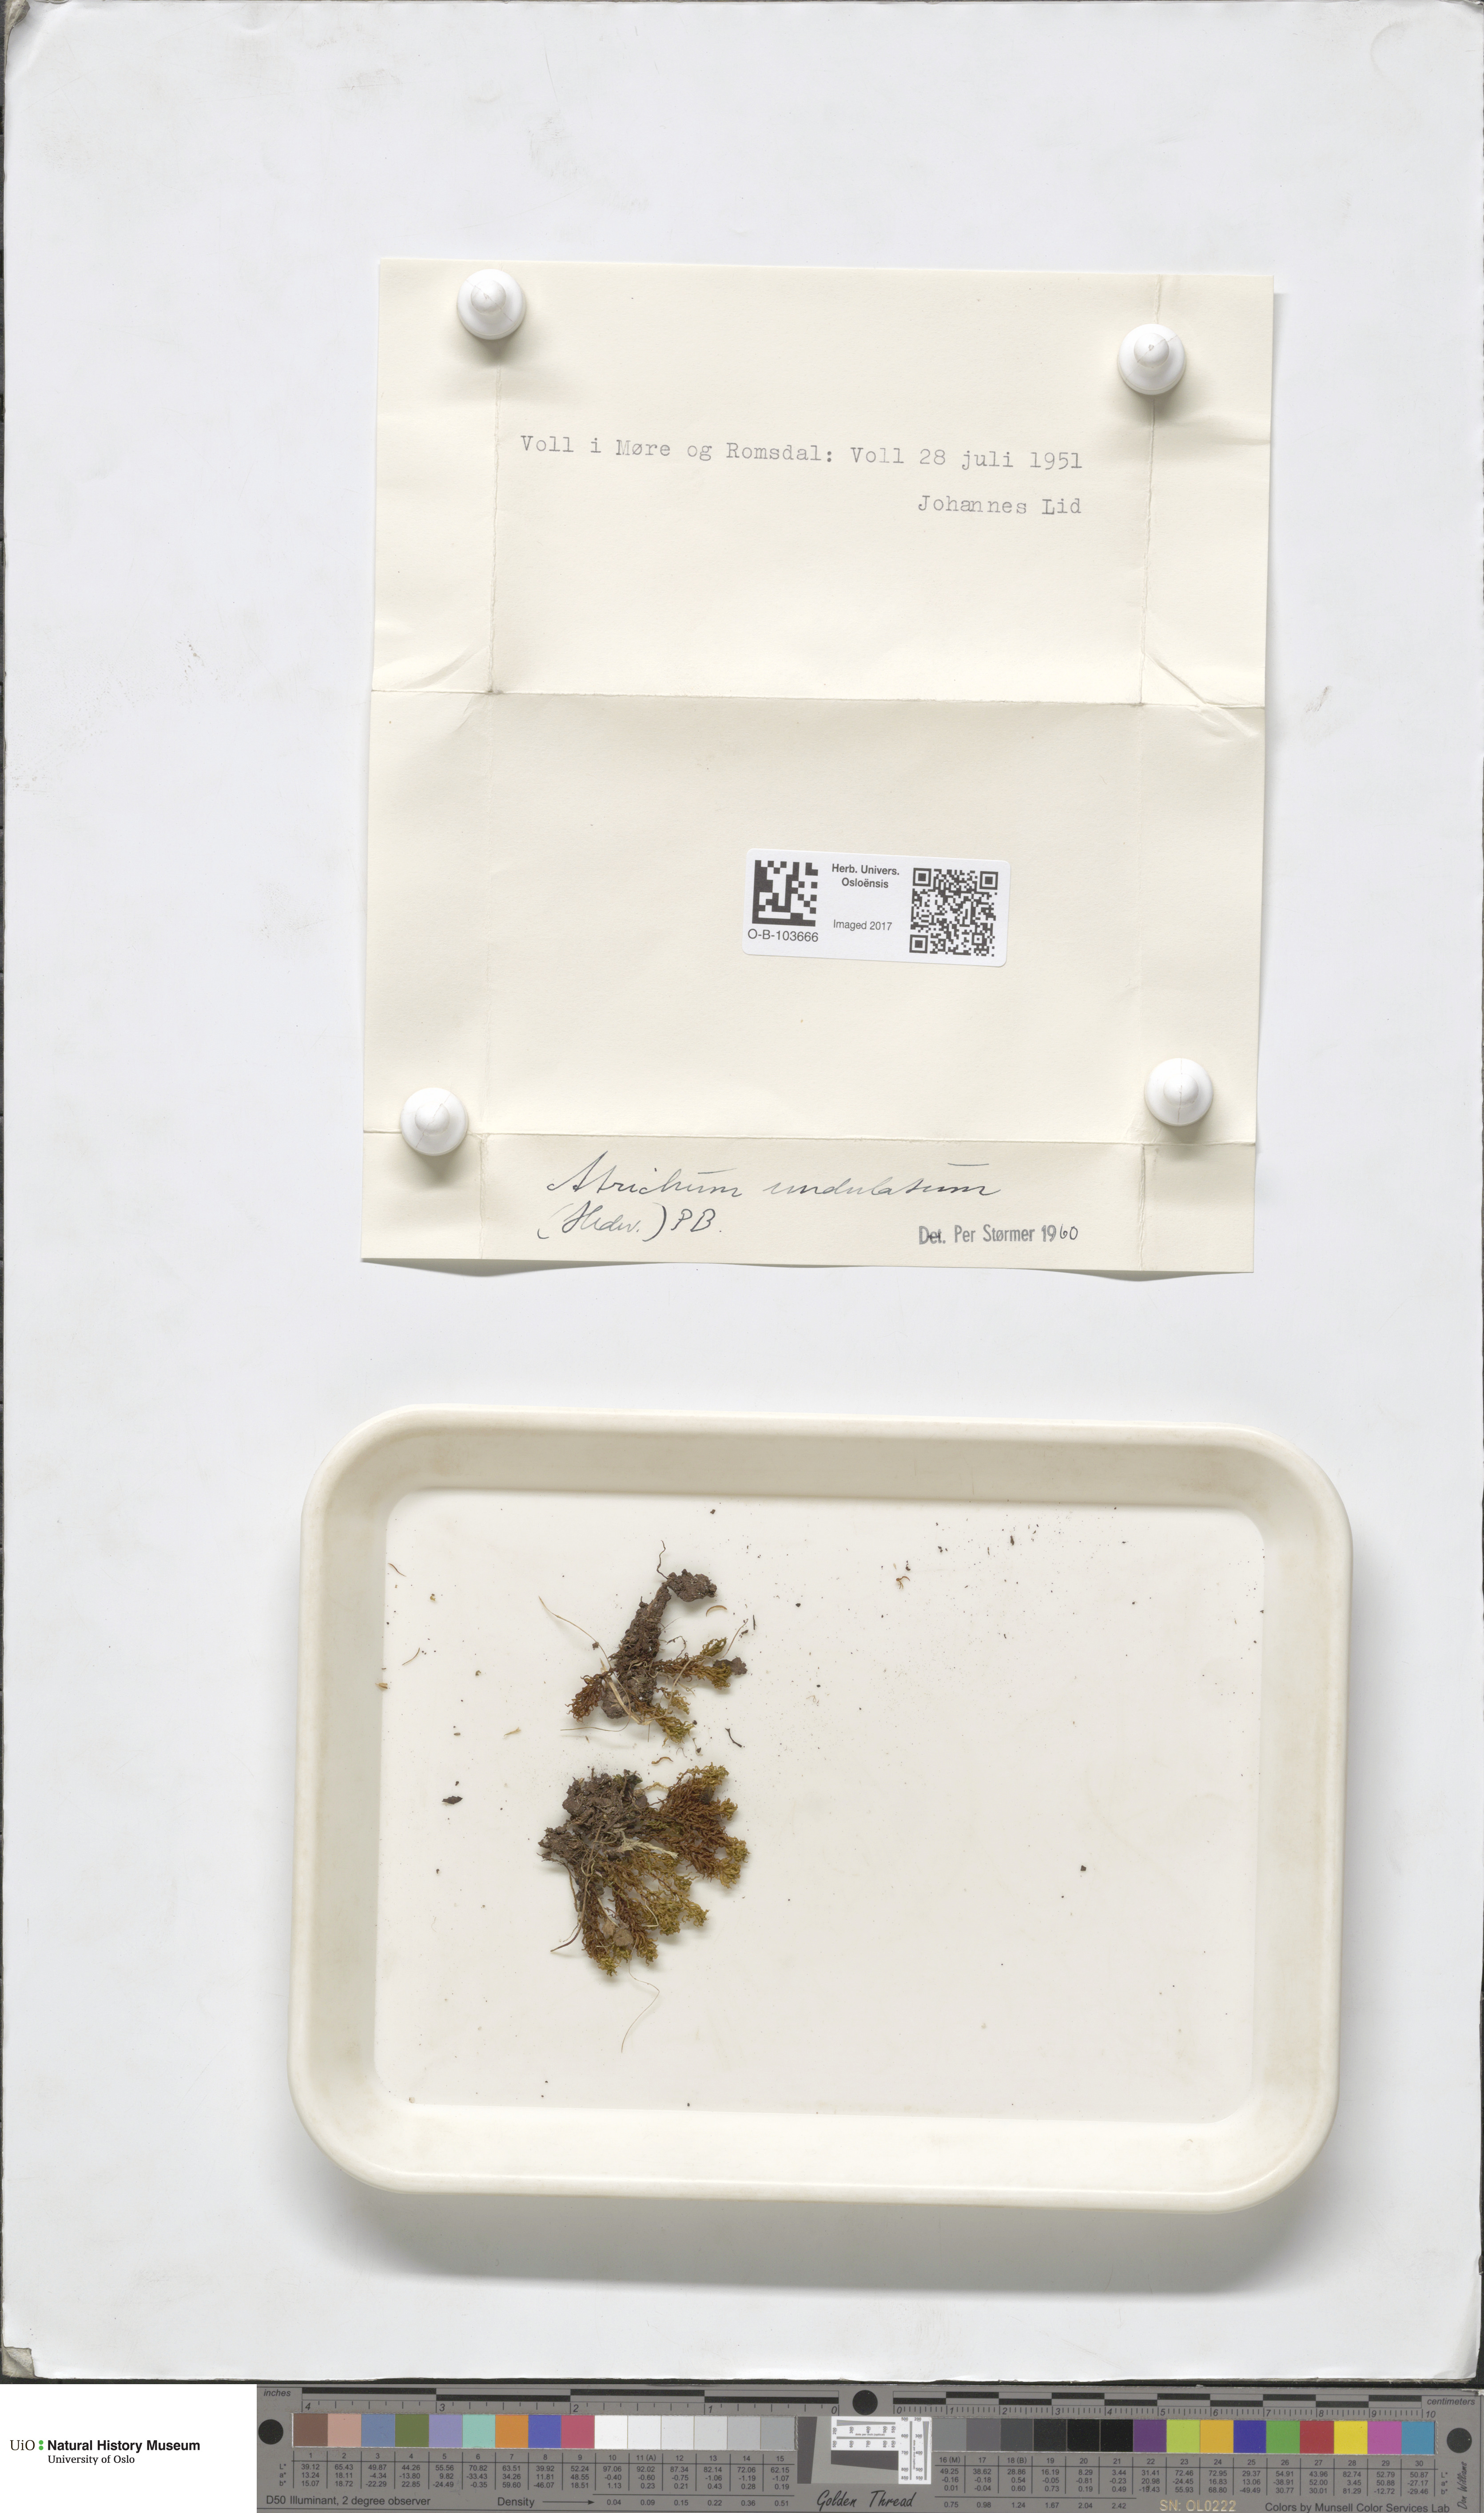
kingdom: Plantae
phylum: Bryophyta
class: Polytrichopsida
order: Polytrichales
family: Polytrichaceae
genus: Atrichum
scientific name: Atrichum undulatum
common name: Common smoothcap
